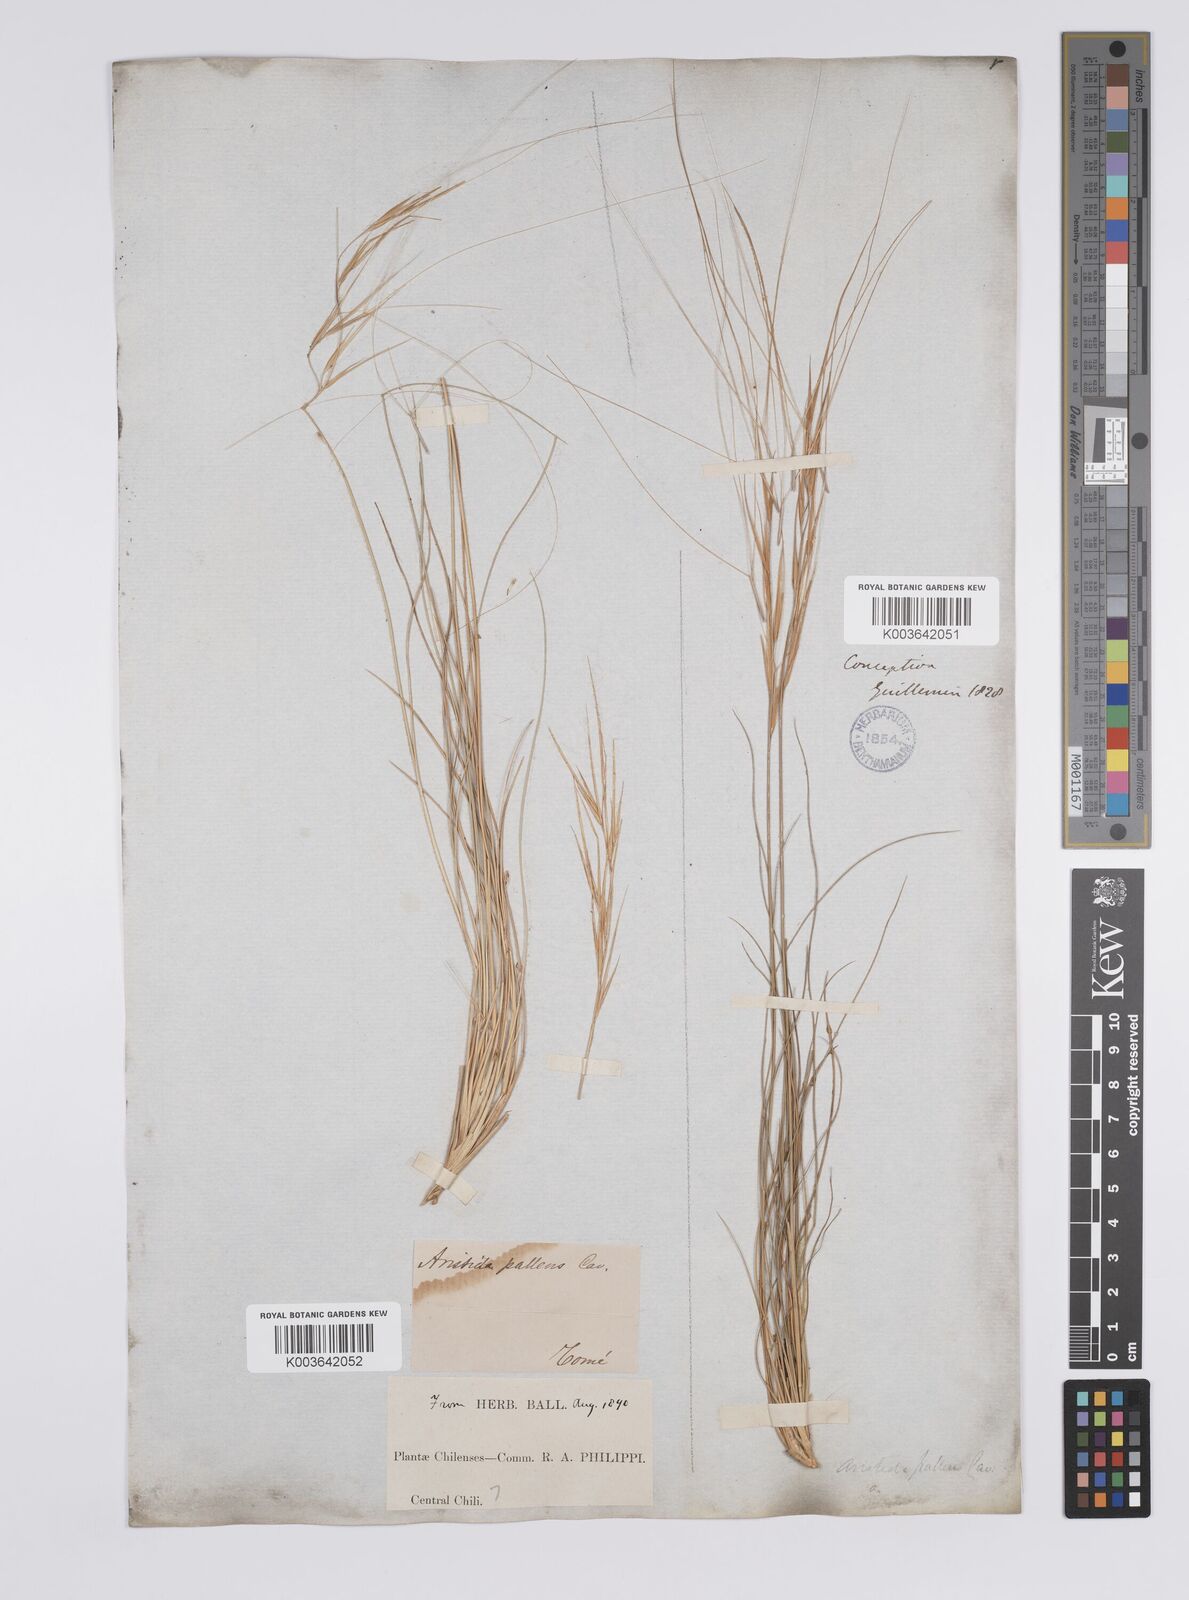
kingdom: Plantae
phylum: Tracheophyta
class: Liliopsida
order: Poales
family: Poaceae
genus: Aristida
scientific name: Aristida pallens
